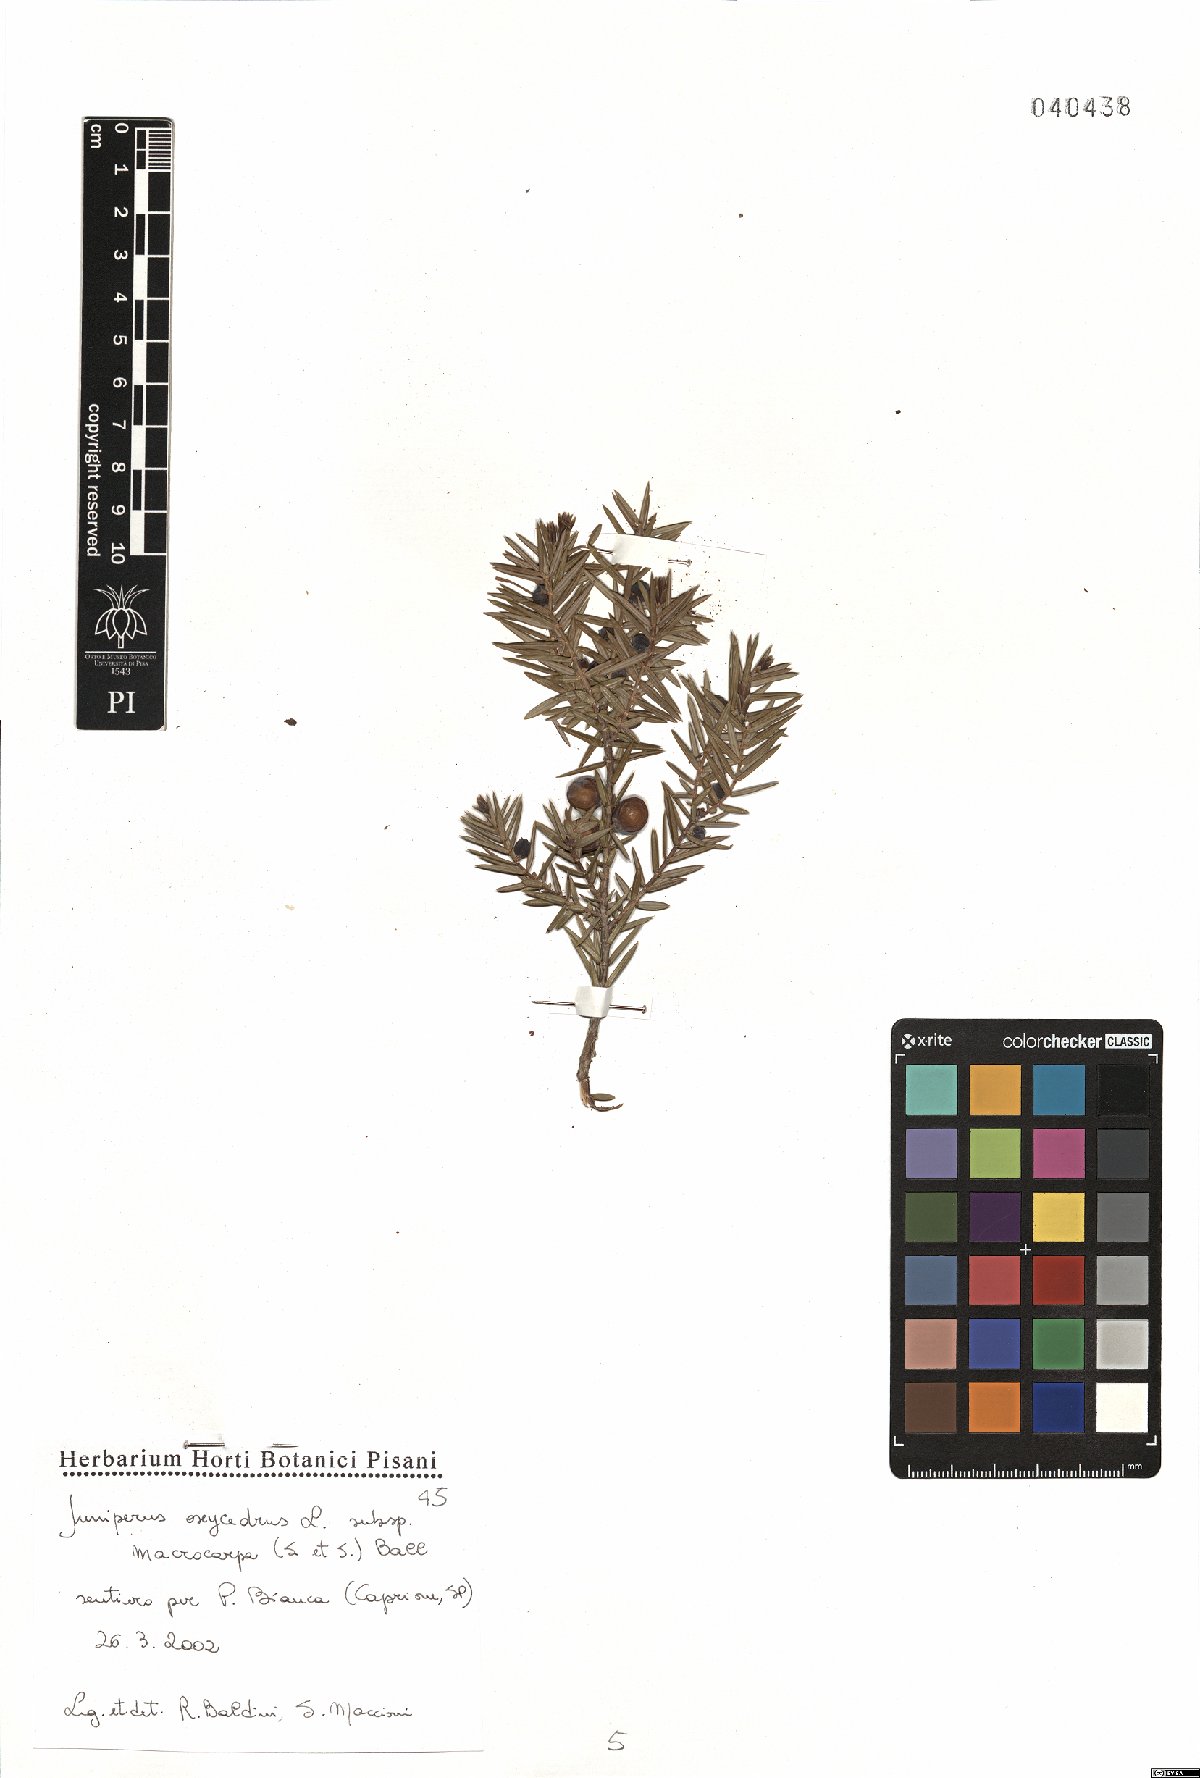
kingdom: Plantae
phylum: Tracheophyta
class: Pinopsida
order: Pinales
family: Cupressaceae
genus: Juniperus
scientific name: Juniperus oxycedrus
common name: Prickly juniper
